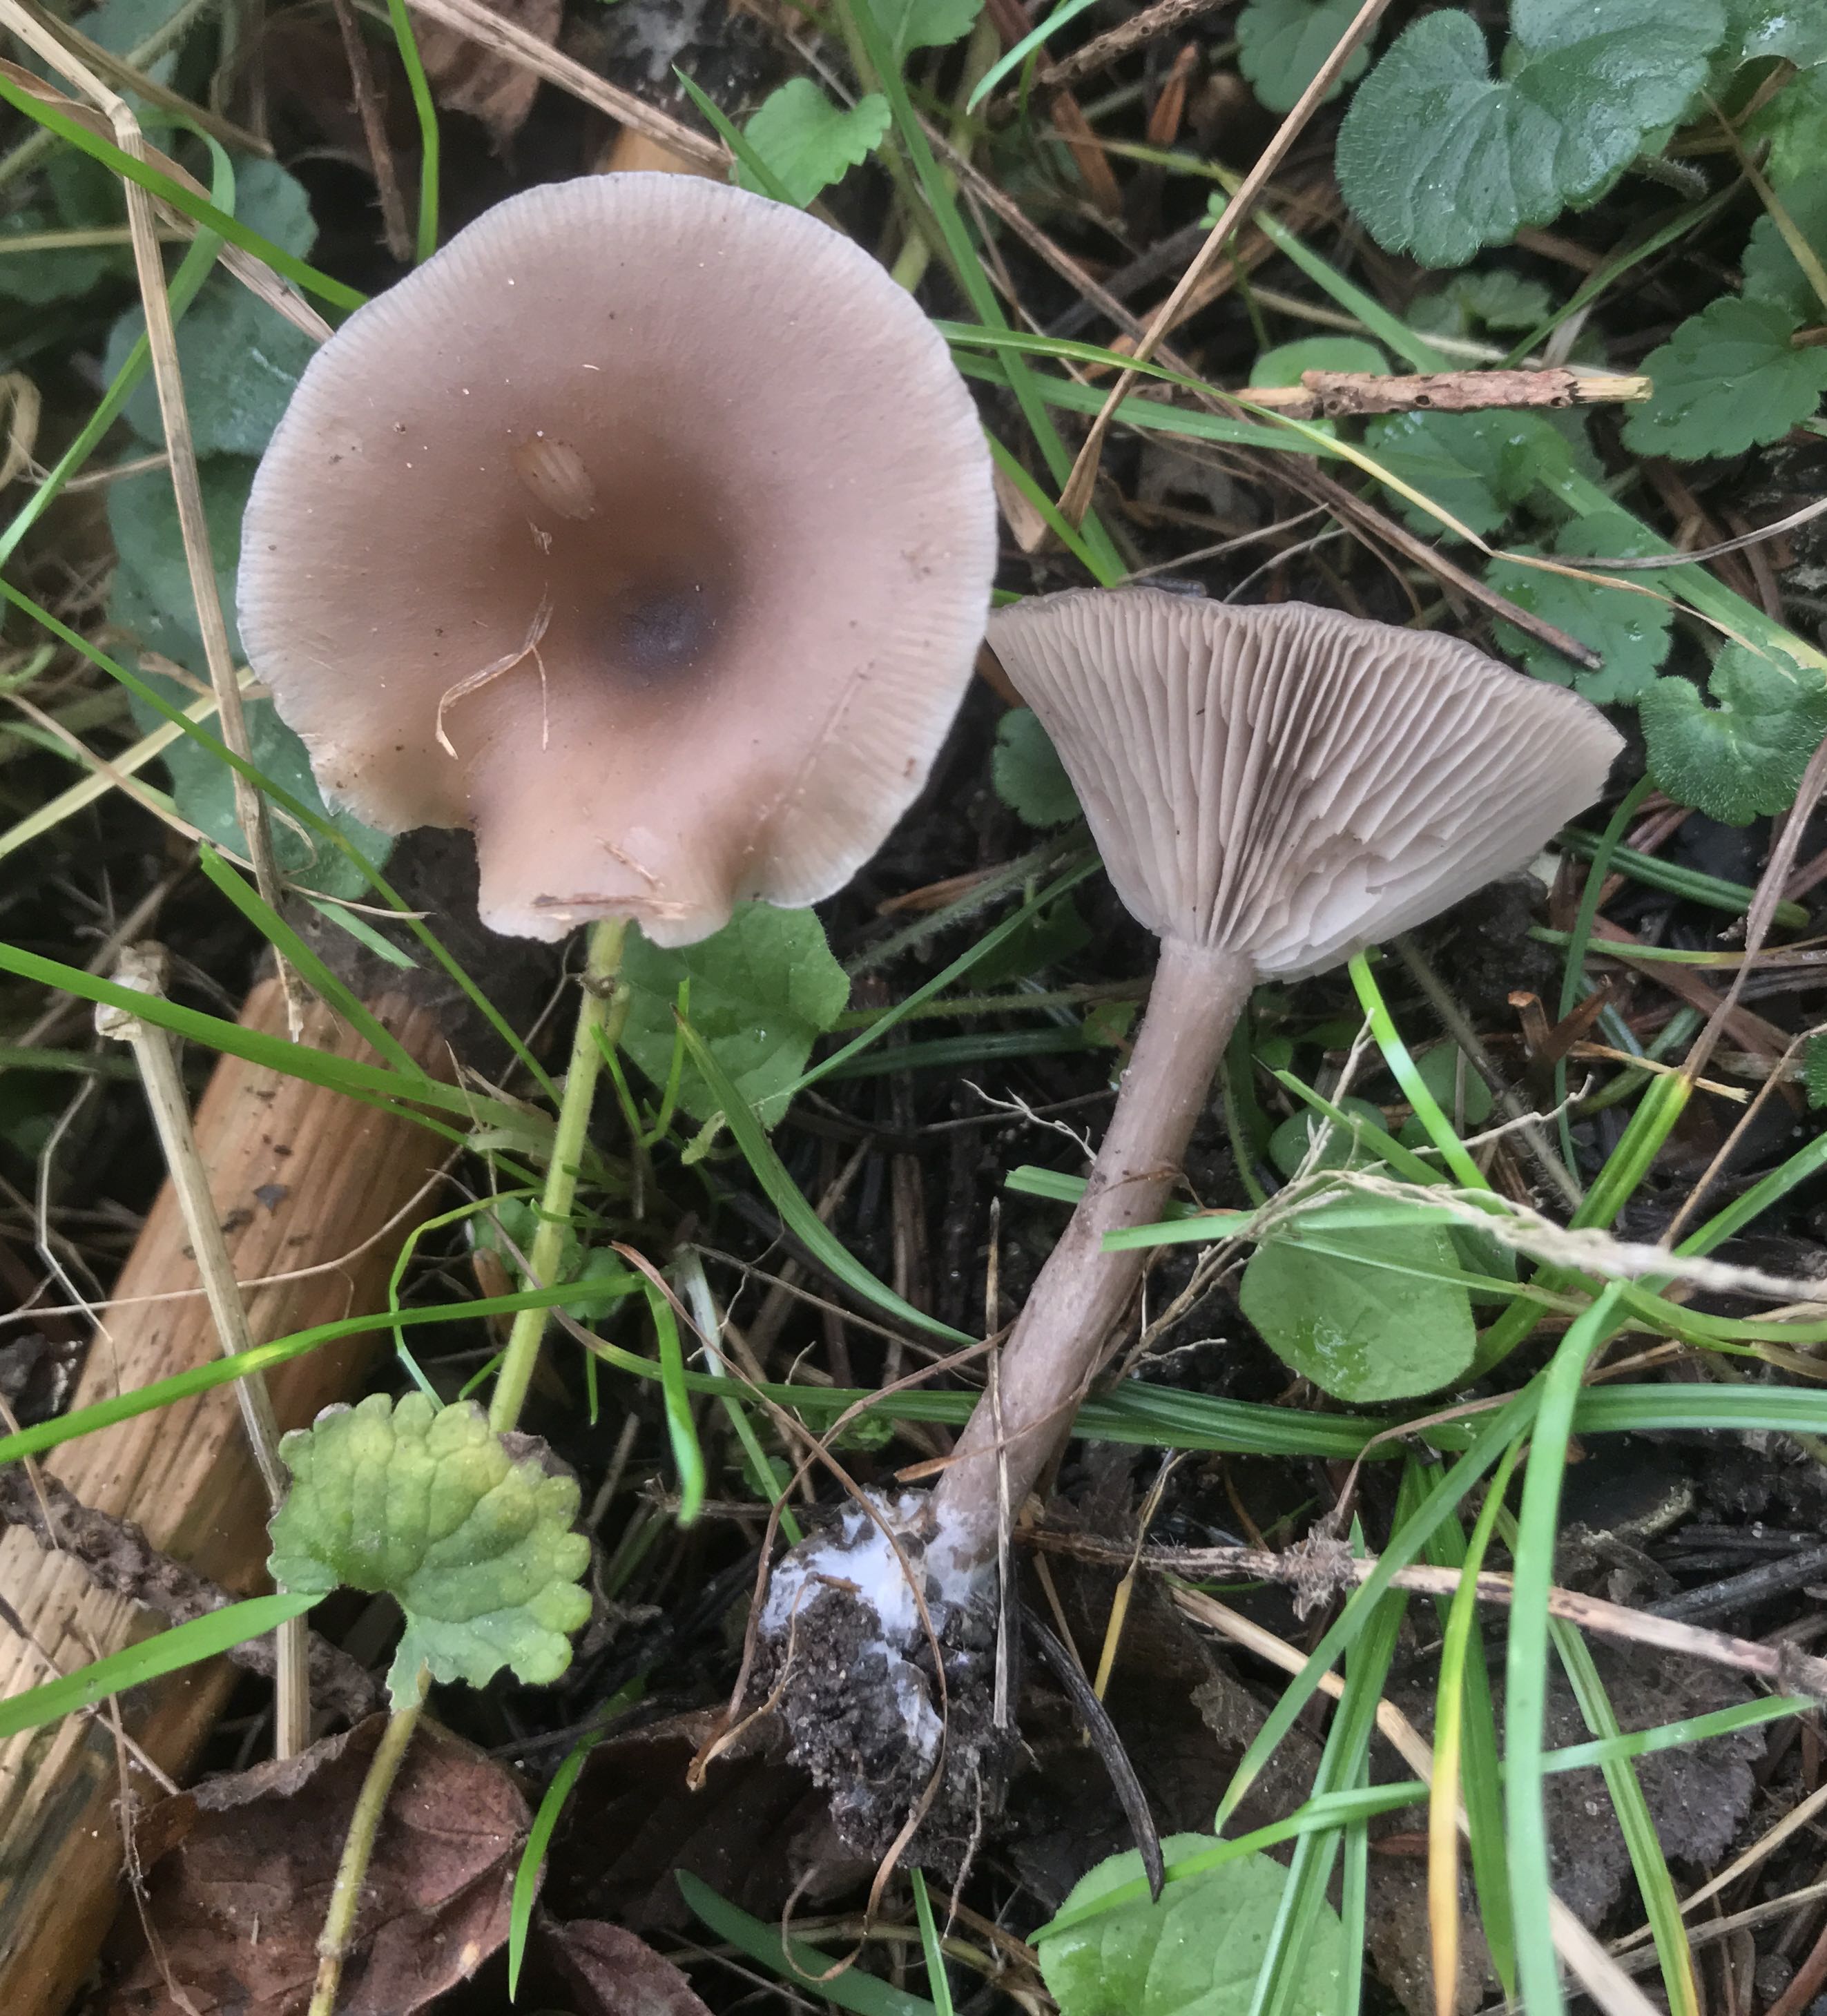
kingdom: Fungi
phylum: Basidiomycota
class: Agaricomycetes
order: Agaricales
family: Pseudoclitocybaceae
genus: Pseudoclitocybe
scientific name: Pseudoclitocybe cyathiformis
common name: almindelig bægertragthat
